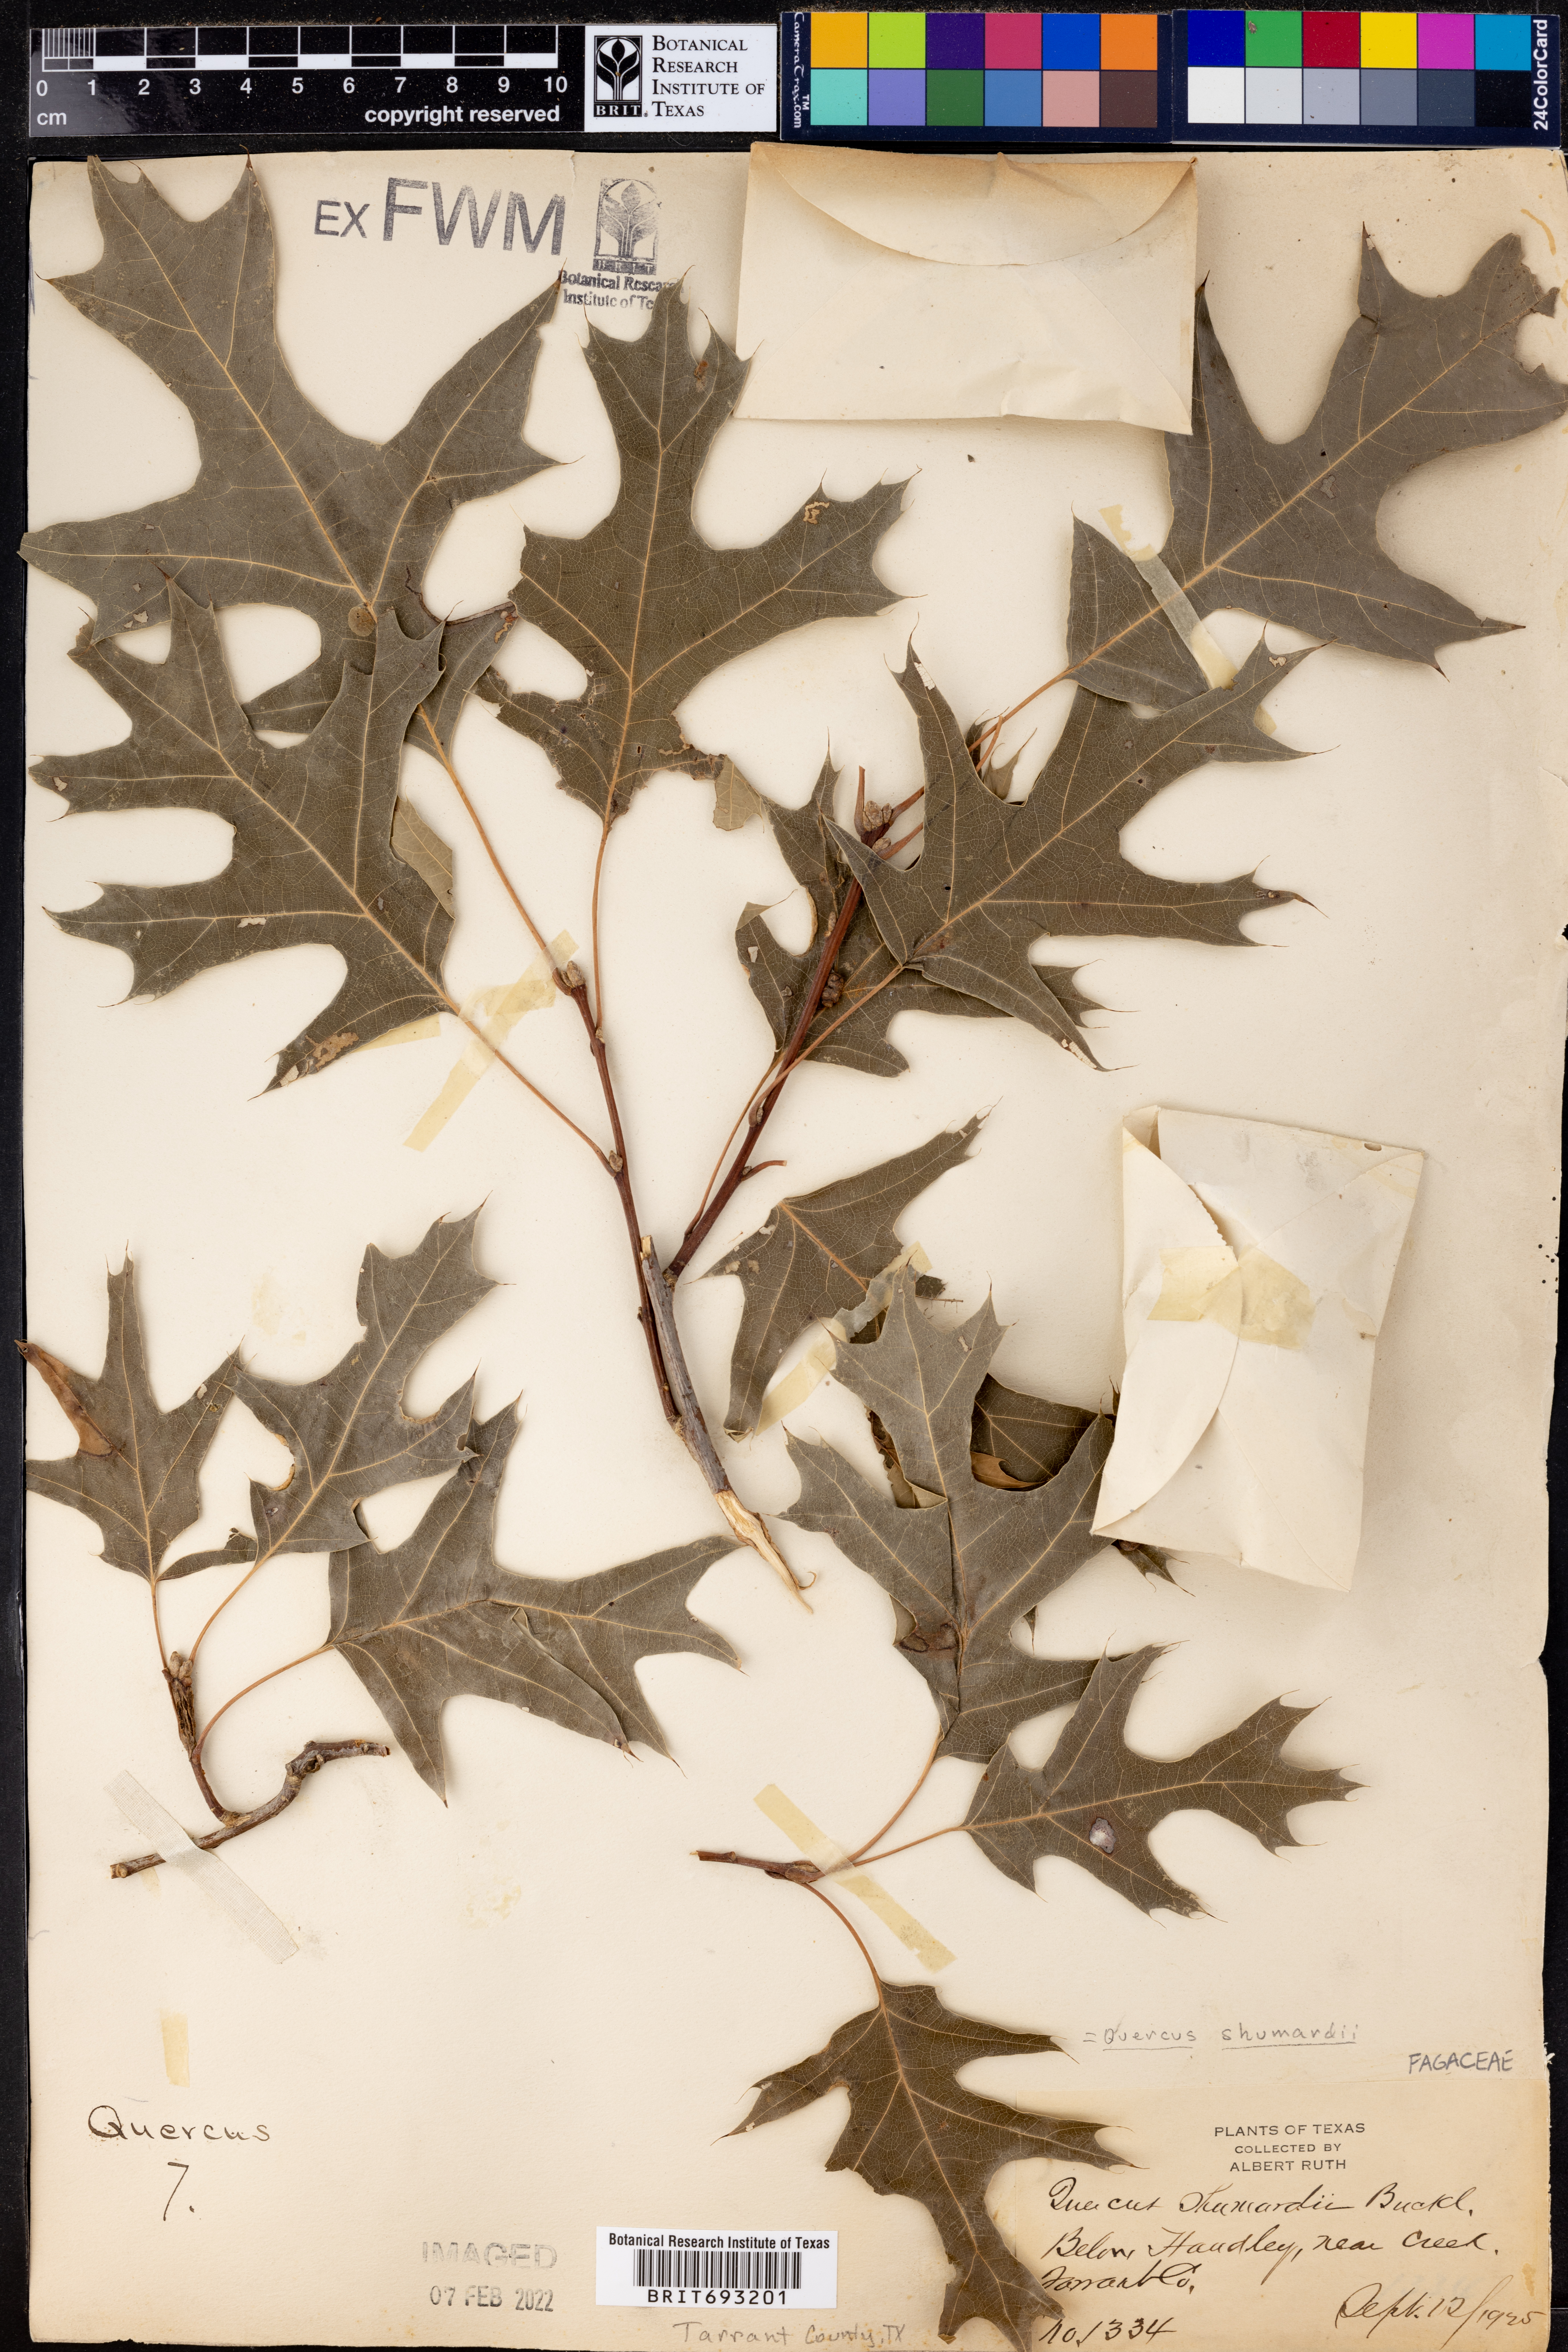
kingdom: Plantae
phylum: Tracheophyta
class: Magnoliopsida
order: Fagales
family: Fagaceae
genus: Quercus
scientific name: Quercus shumardii
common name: Shumard oak
